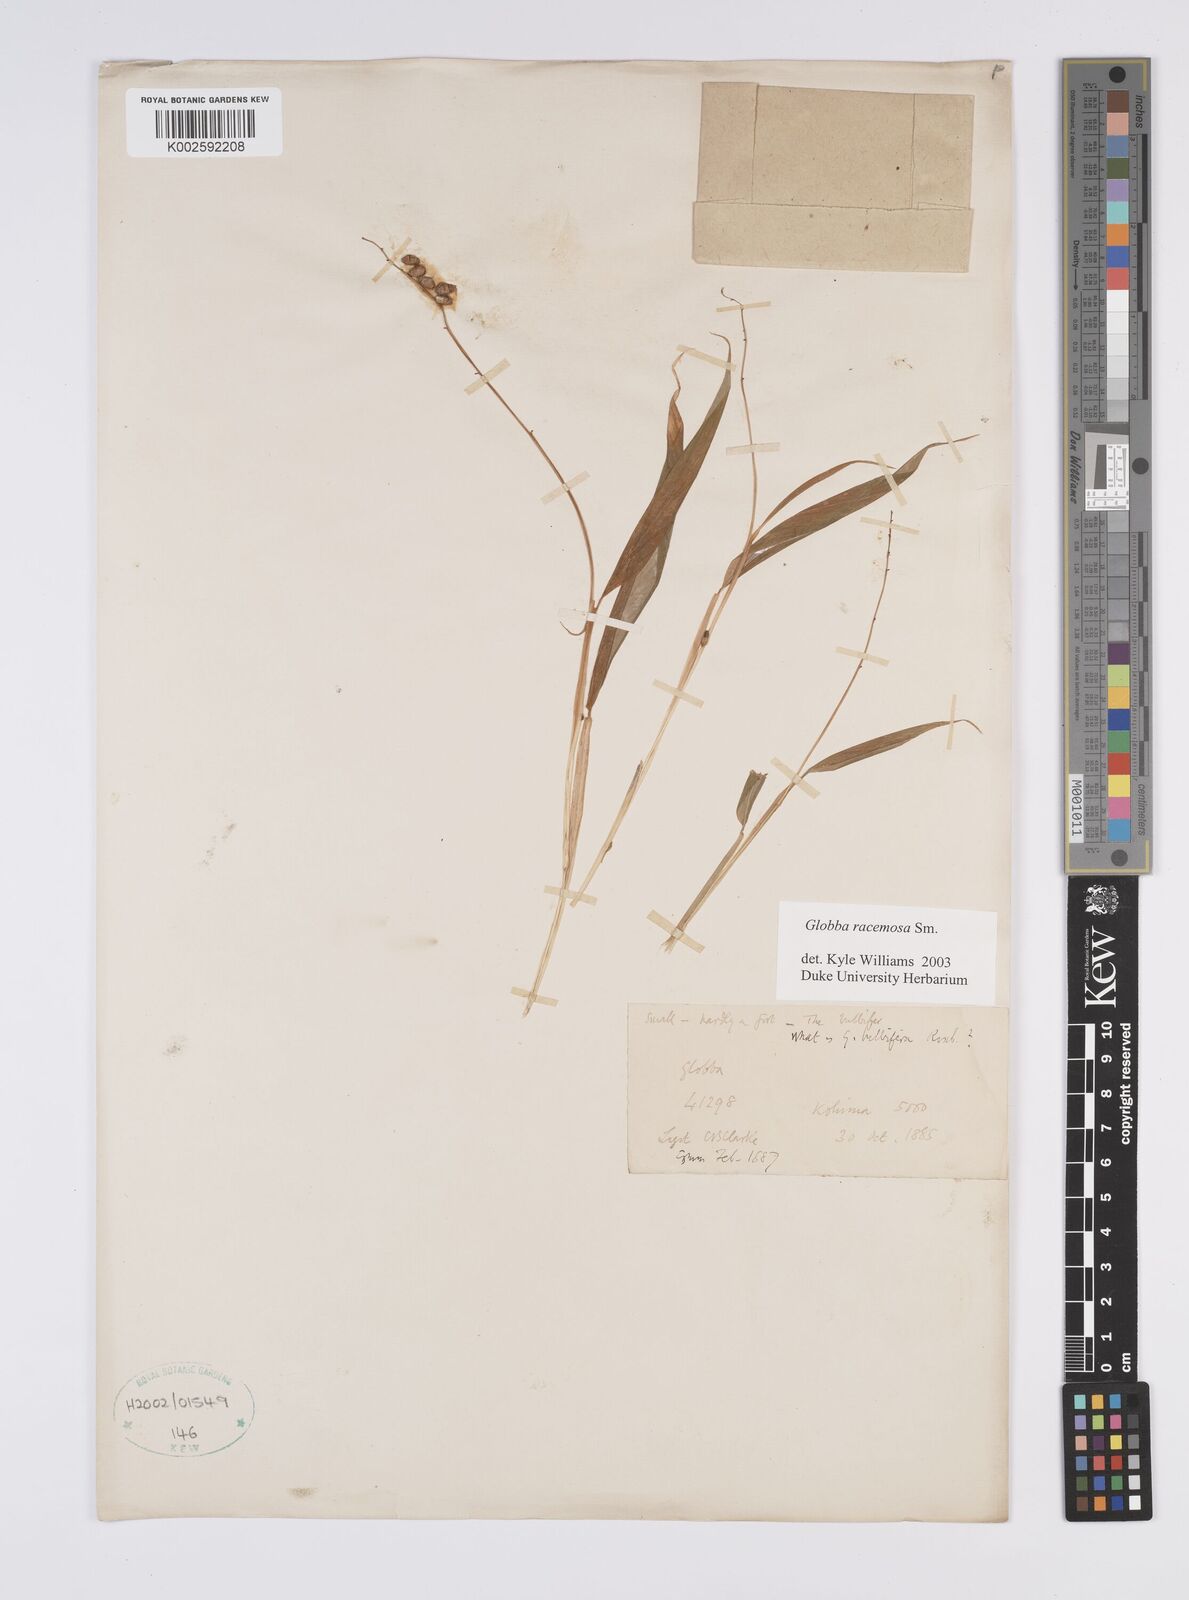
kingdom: Plantae
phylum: Tracheophyta
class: Liliopsida
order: Zingiberales
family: Zingiberaceae
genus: Globba
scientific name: Globba racemosa
